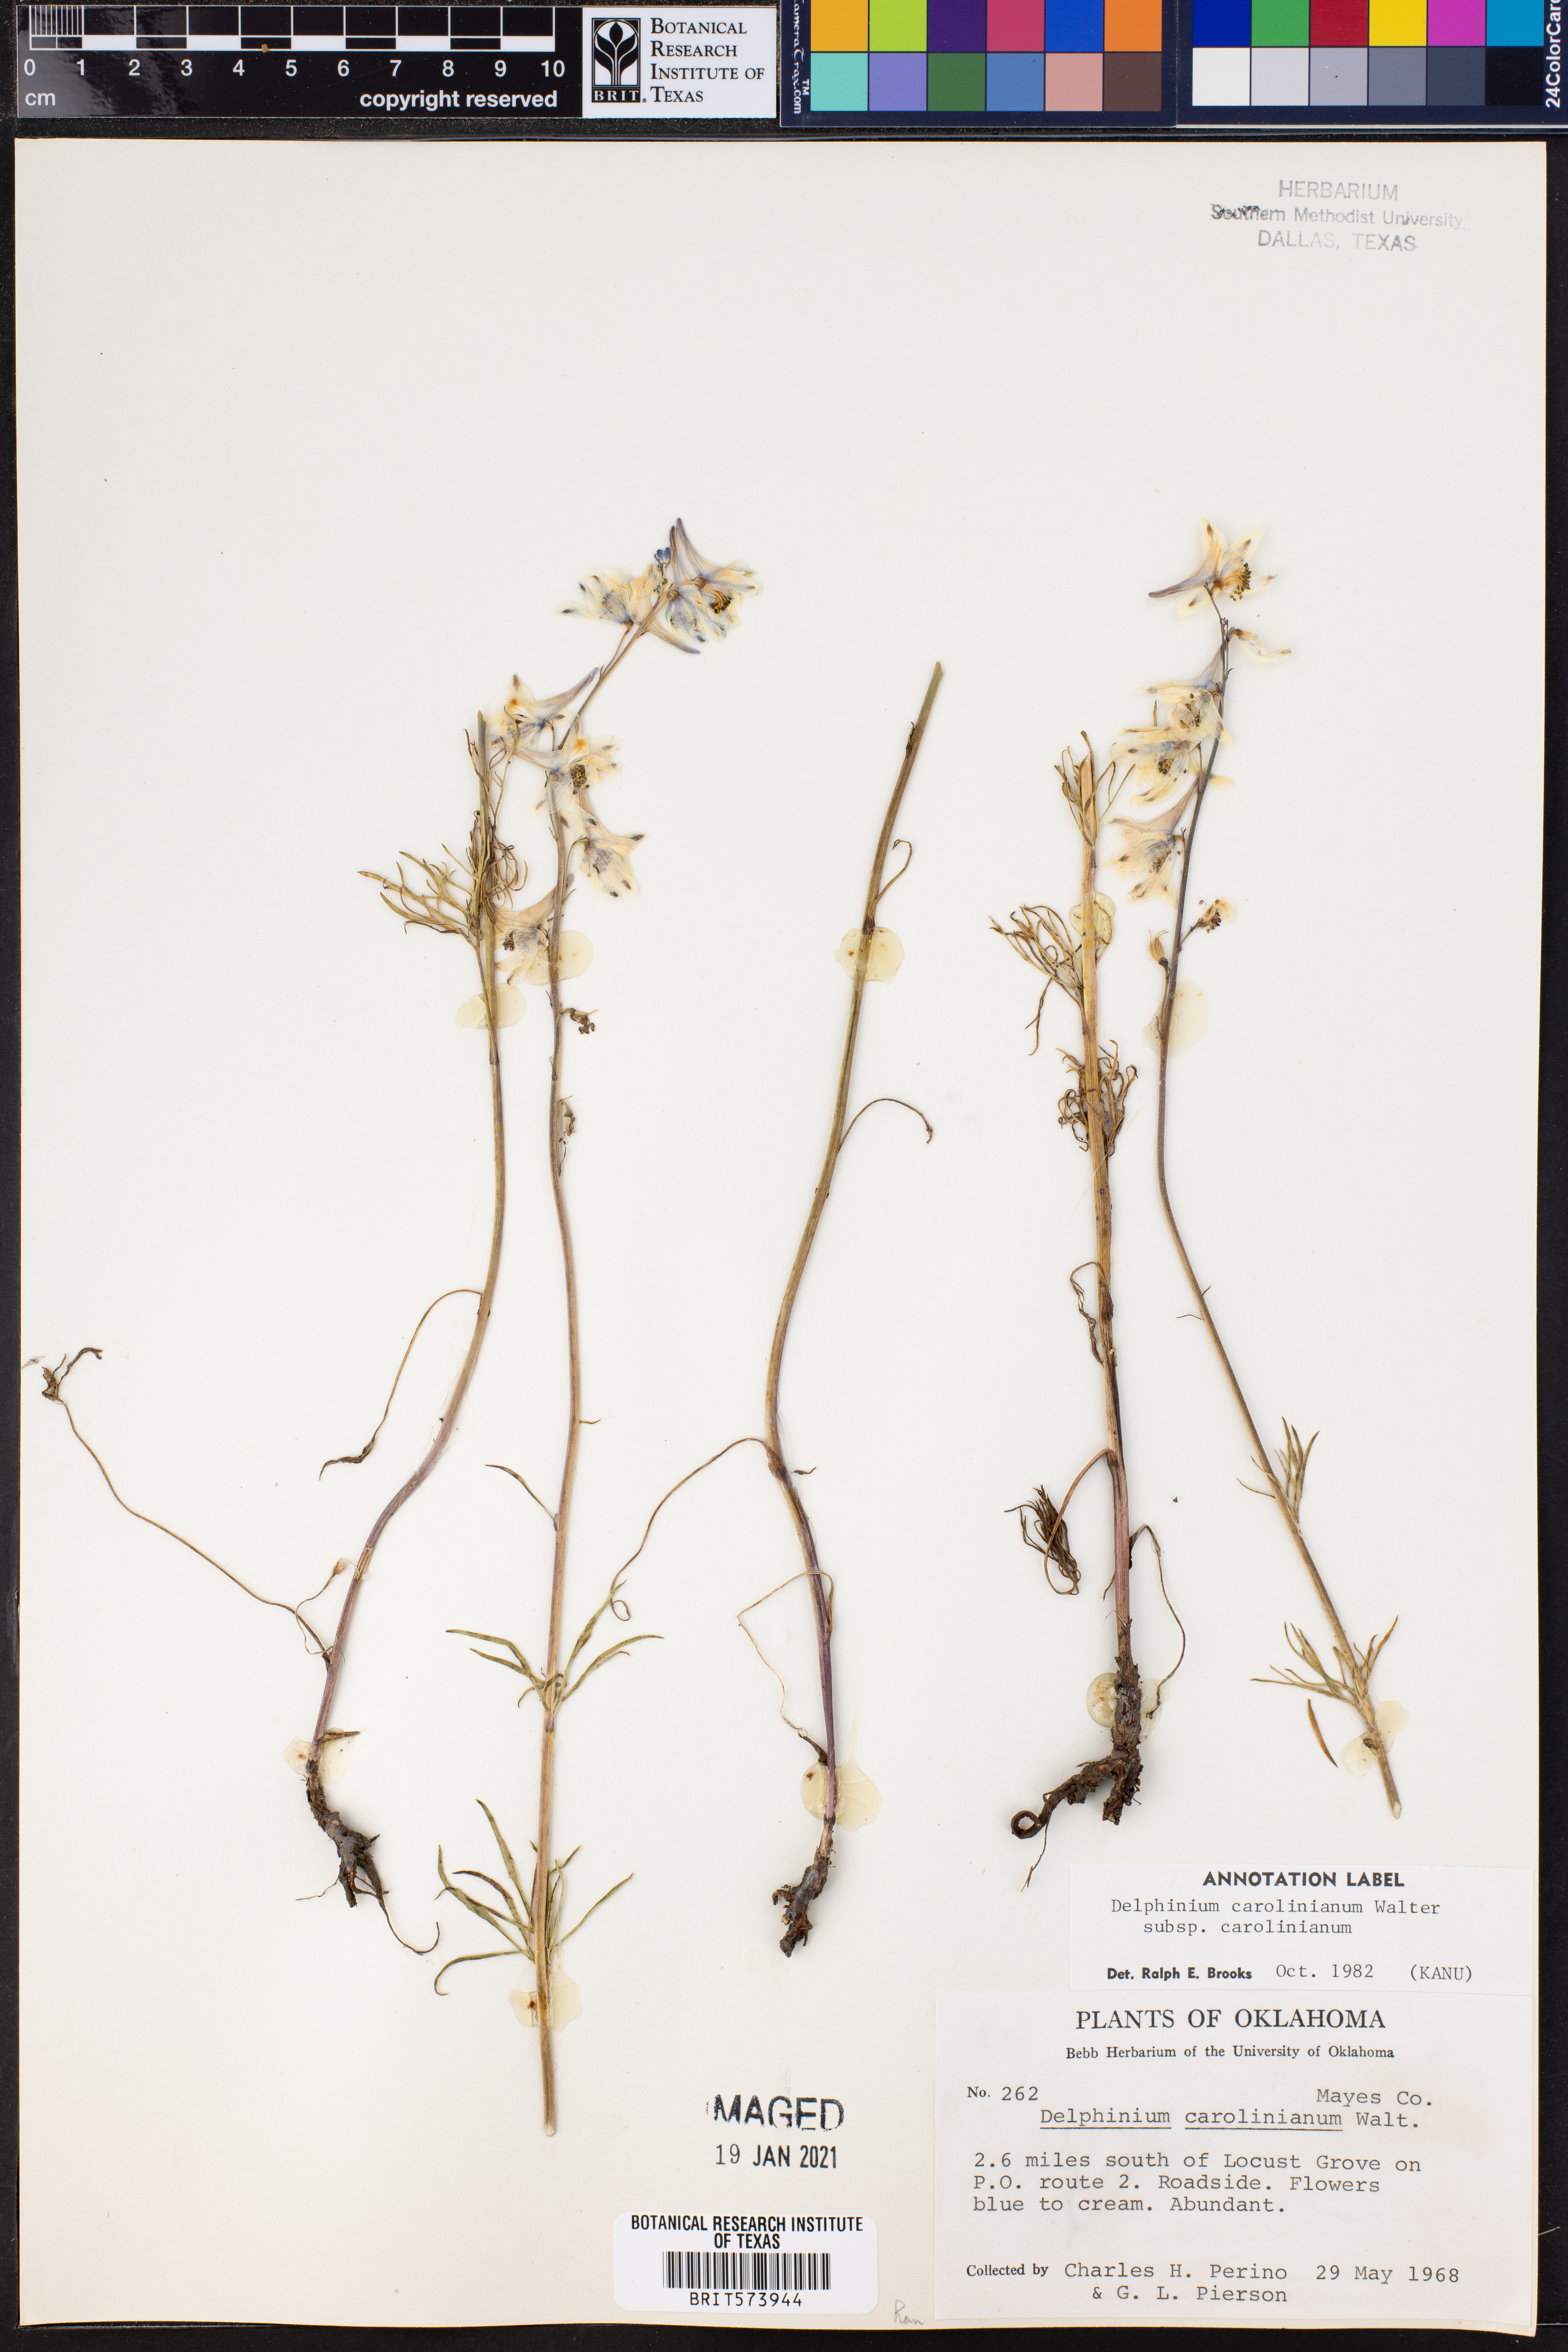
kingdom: Plantae
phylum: Tracheophyta
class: Magnoliopsida
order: Ranunculales
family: Ranunculaceae
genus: Delphinium
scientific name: Delphinium carolinianum
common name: Carolina larkspur
